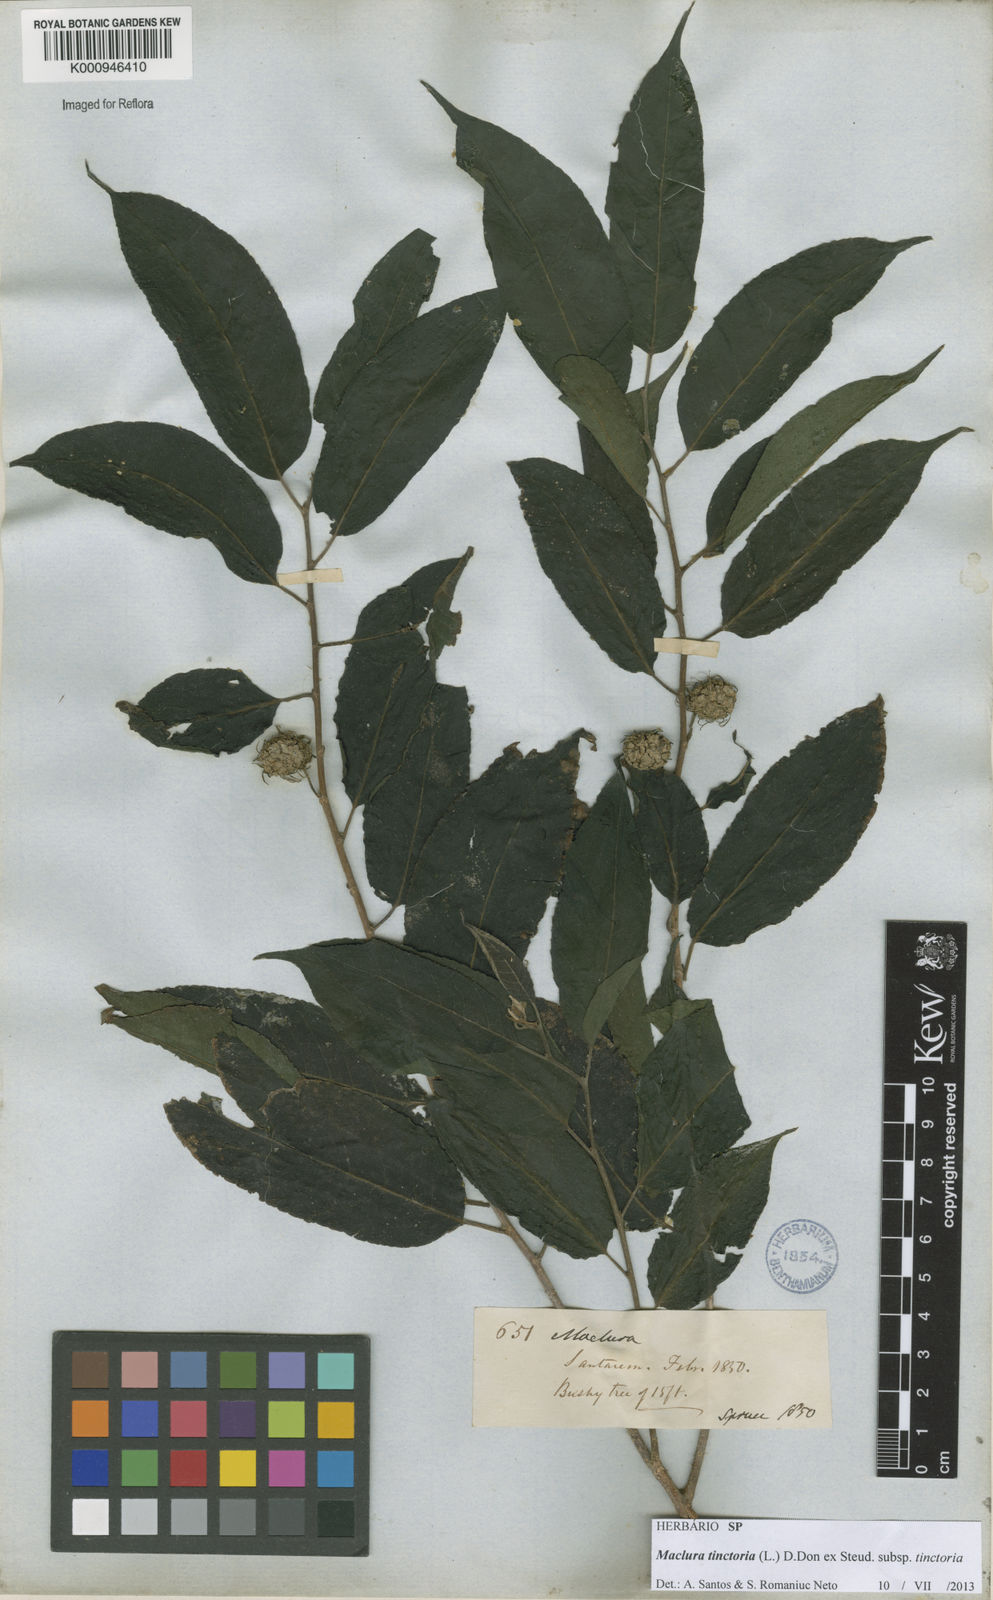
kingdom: Plantae
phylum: Tracheophyta
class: Magnoliopsida
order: Rosales
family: Moraceae
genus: Maclura
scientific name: Maclura tinctoria
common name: Old fustic
